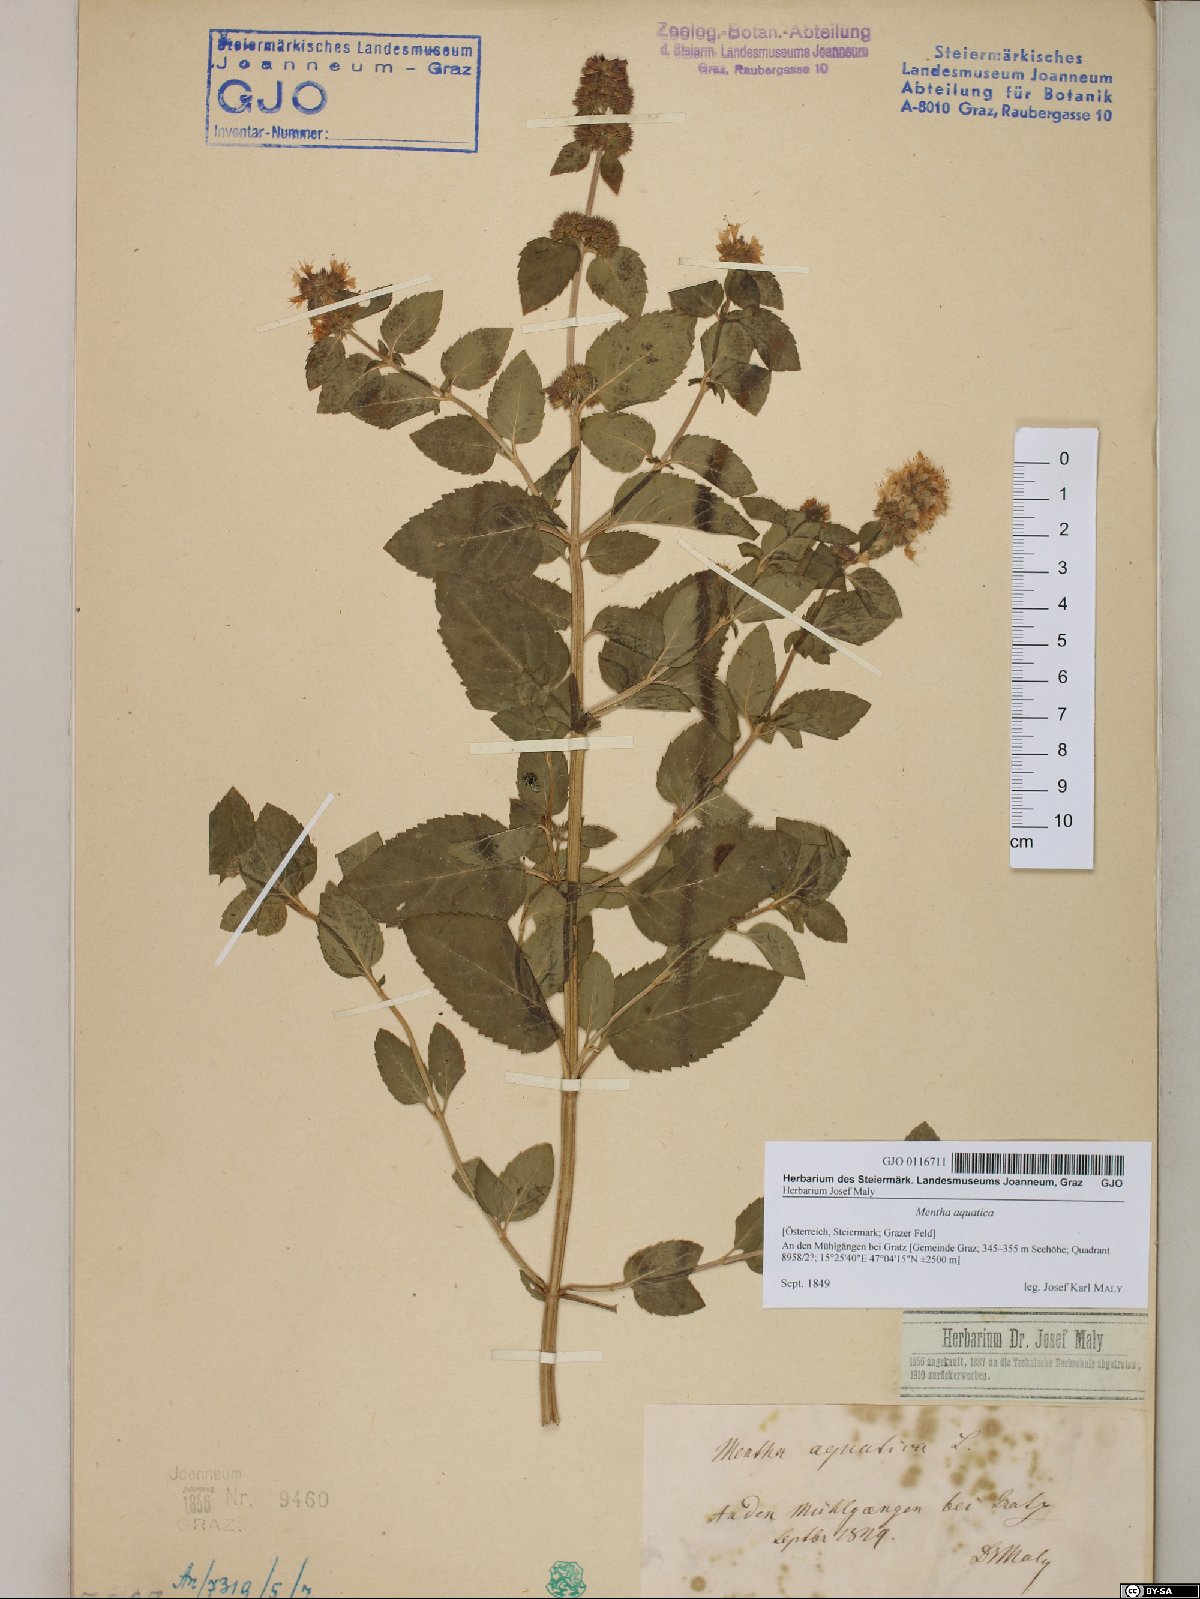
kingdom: Plantae
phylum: Tracheophyta
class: Magnoliopsida
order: Lamiales
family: Lamiaceae
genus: Mentha
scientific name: Mentha aquatica
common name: Water mint
